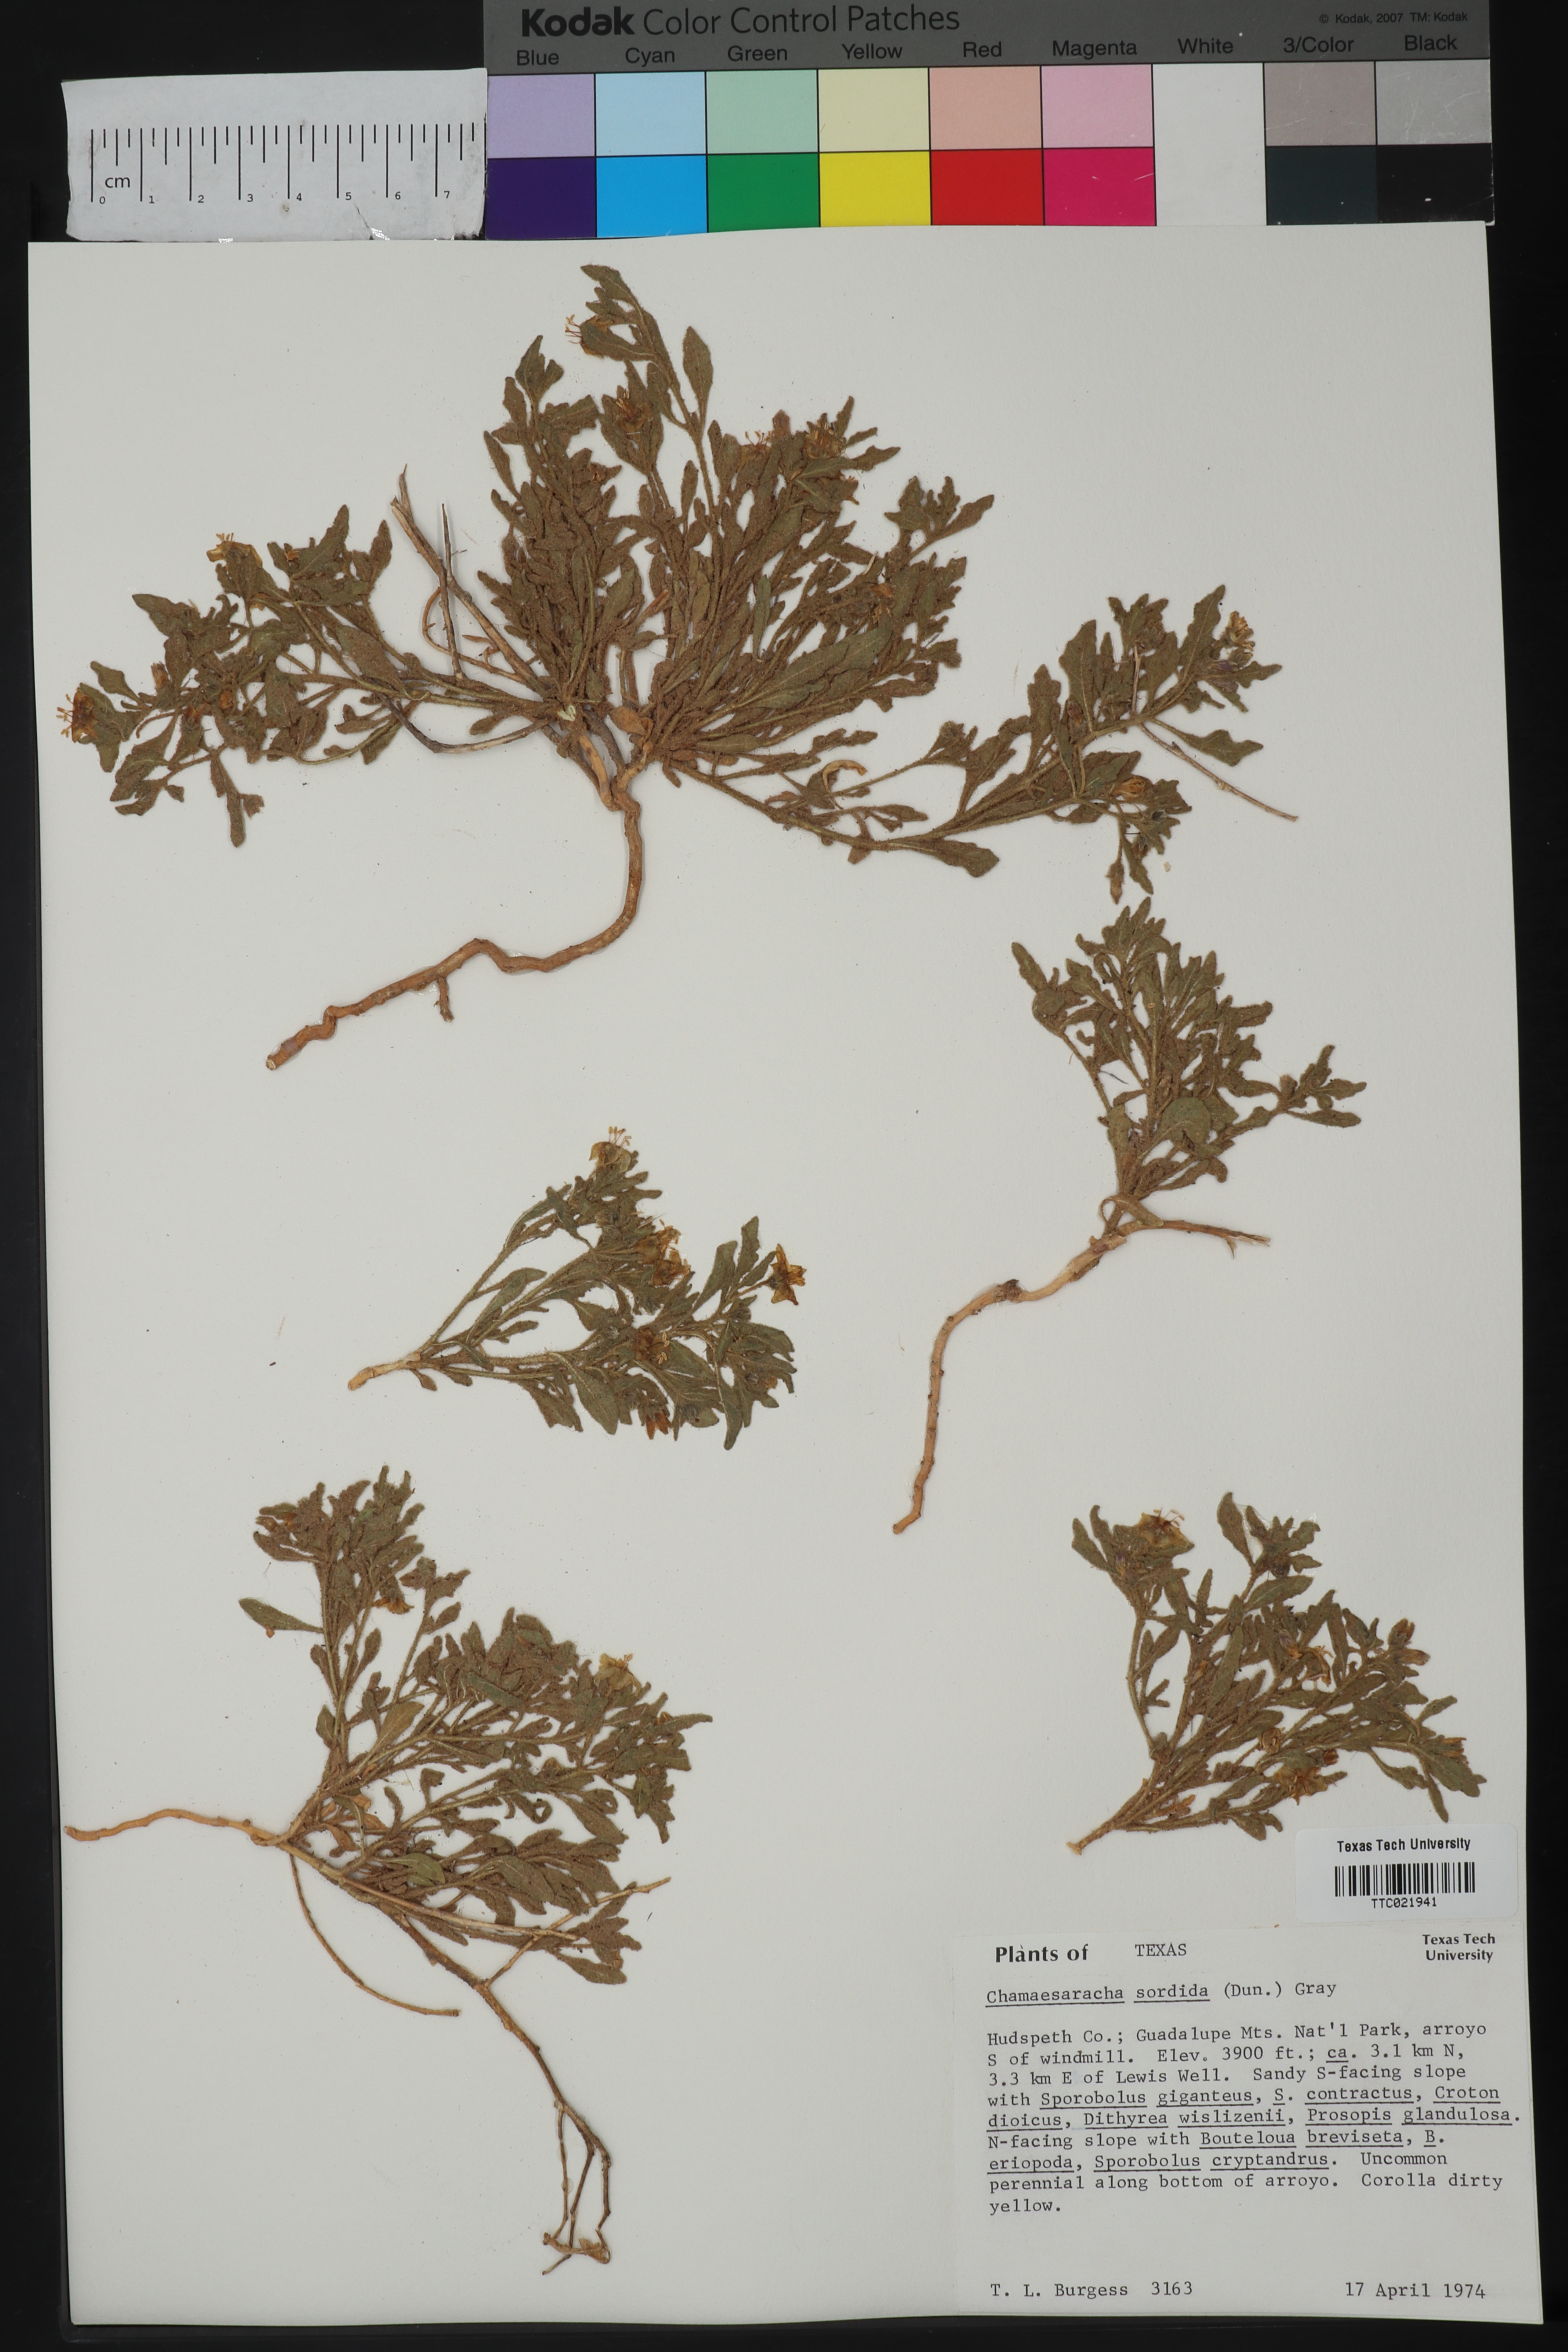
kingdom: Plantae
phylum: Tracheophyta
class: Magnoliopsida
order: Solanales
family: Solanaceae
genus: Chamaesaracha
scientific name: Chamaesaracha sordida
